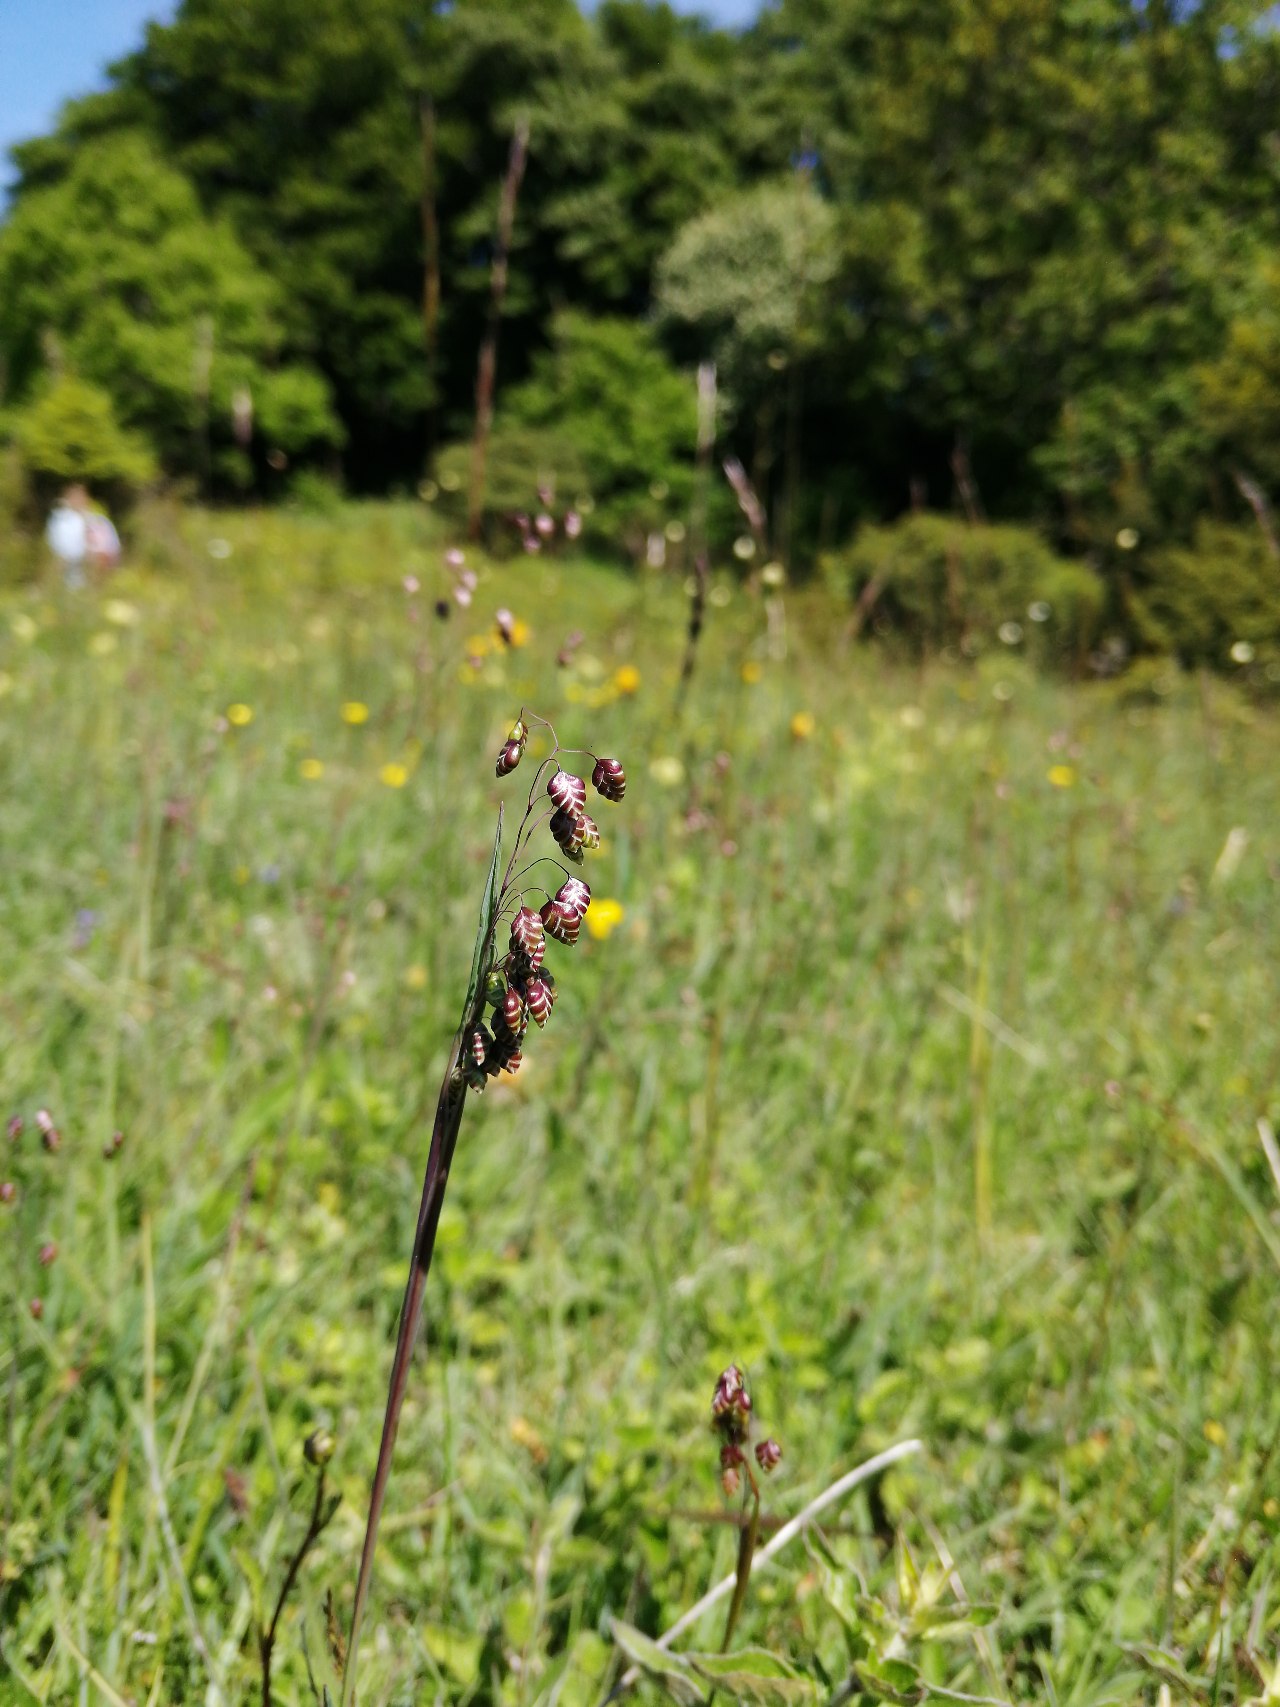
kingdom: Plantae
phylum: Tracheophyta
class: Liliopsida
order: Poales
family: Poaceae
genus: Briza
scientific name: Briza media
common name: Hjertegræs
